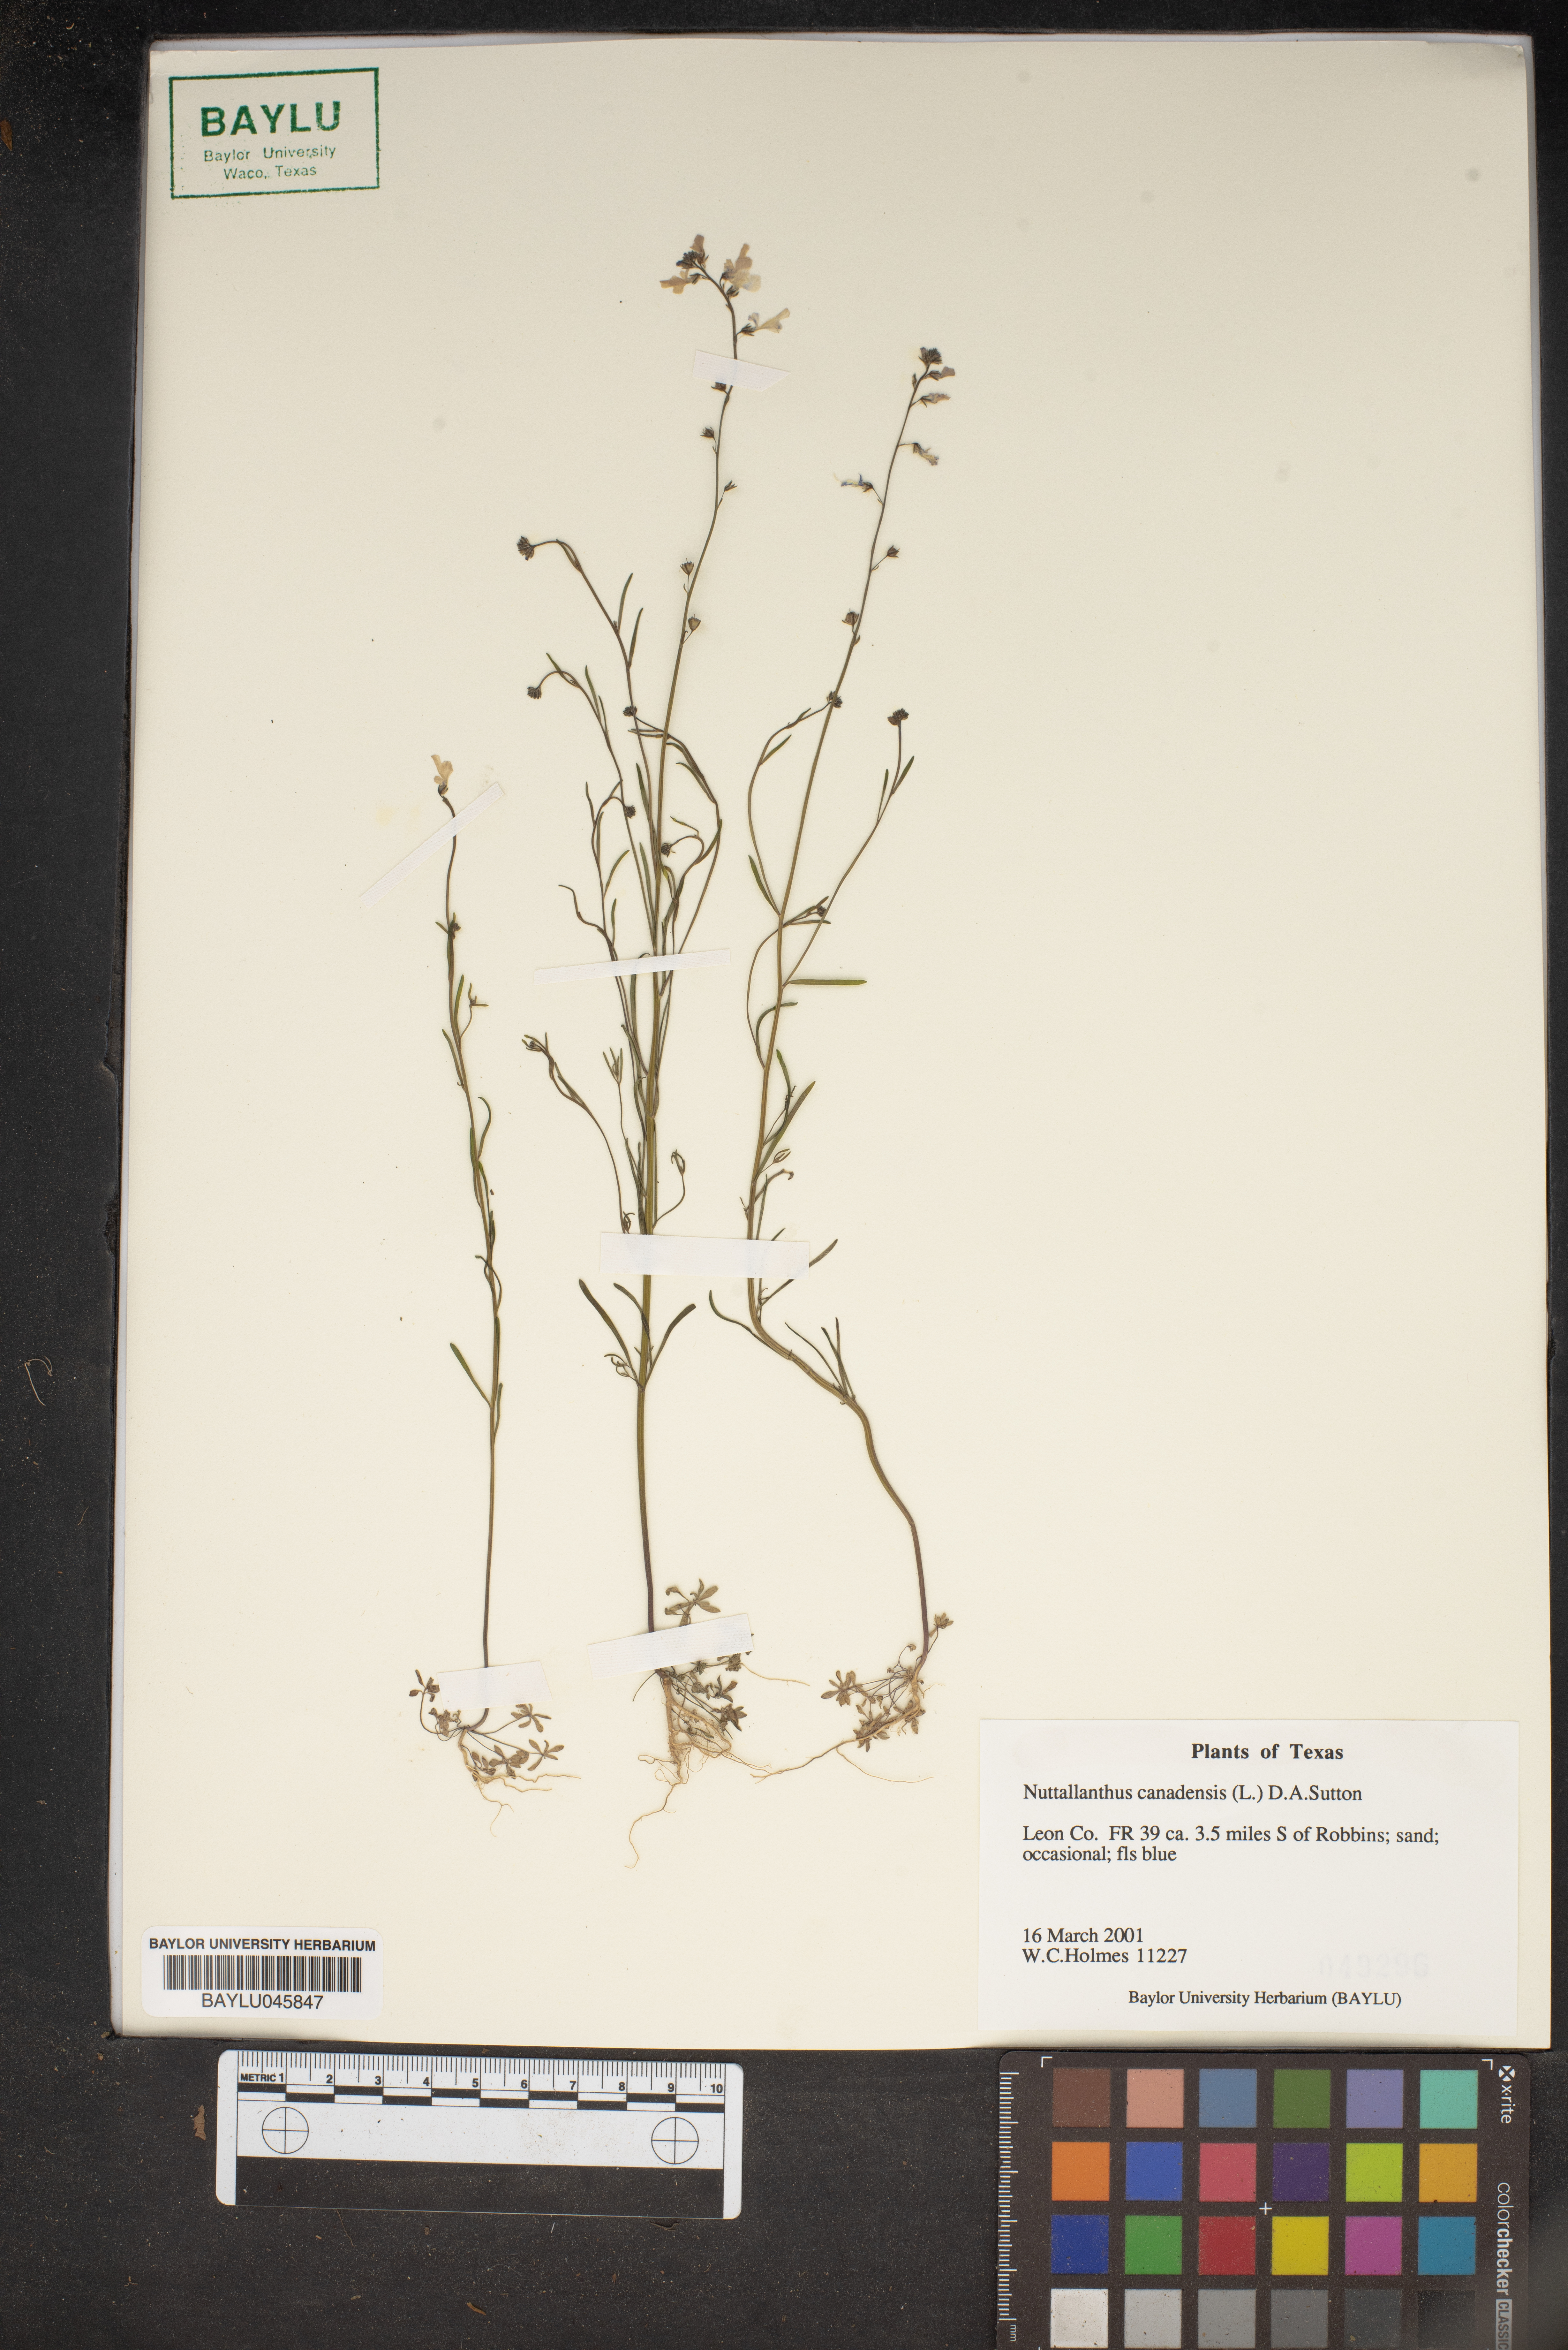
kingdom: Plantae
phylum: Tracheophyta
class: Magnoliopsida
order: Lamiales
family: Plantaginaceae
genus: Nuttallanthus
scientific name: Nuttallanthus canadensis
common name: Blue toadflax
